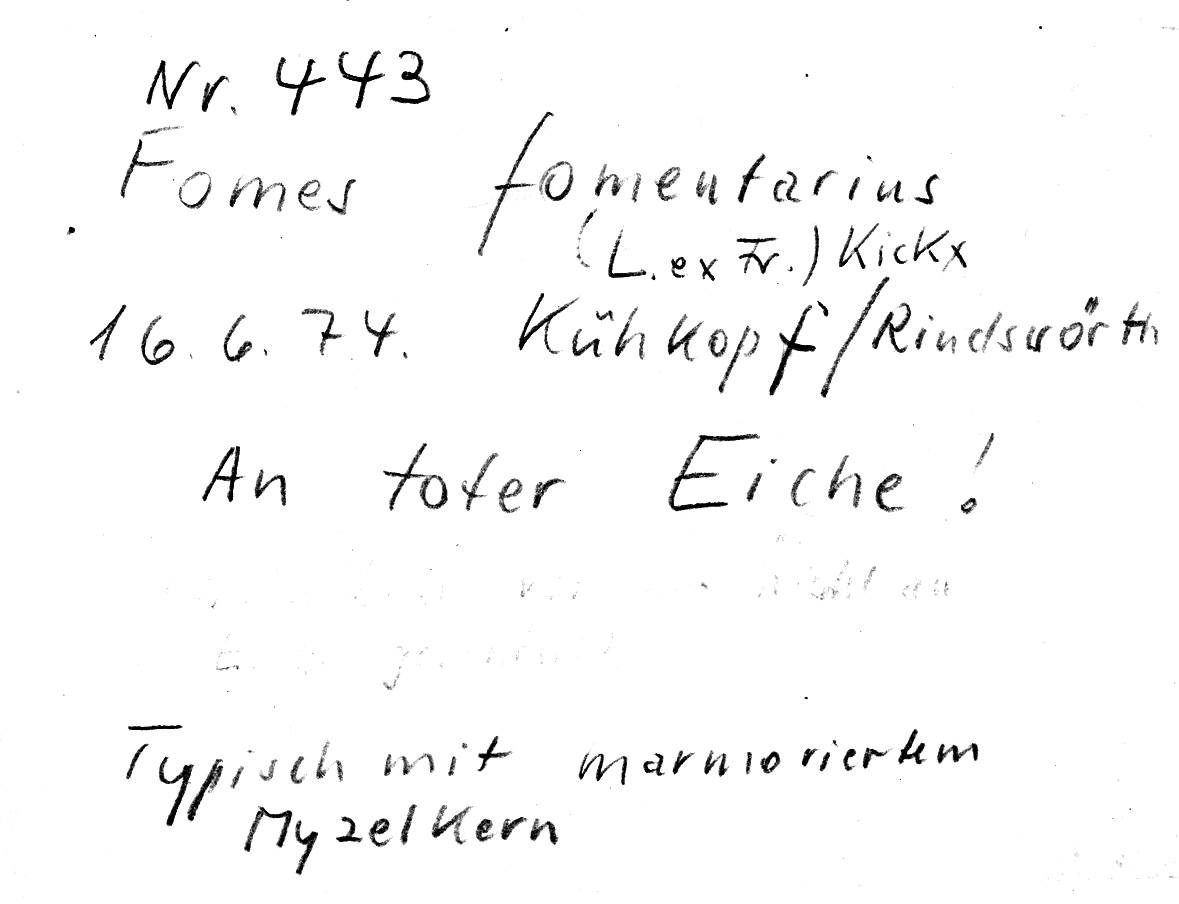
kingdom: Plantae
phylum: Tracheophyta
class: Magnoliopsida
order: Fagales
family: Fagaceae
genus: Quercus
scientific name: Quercus
